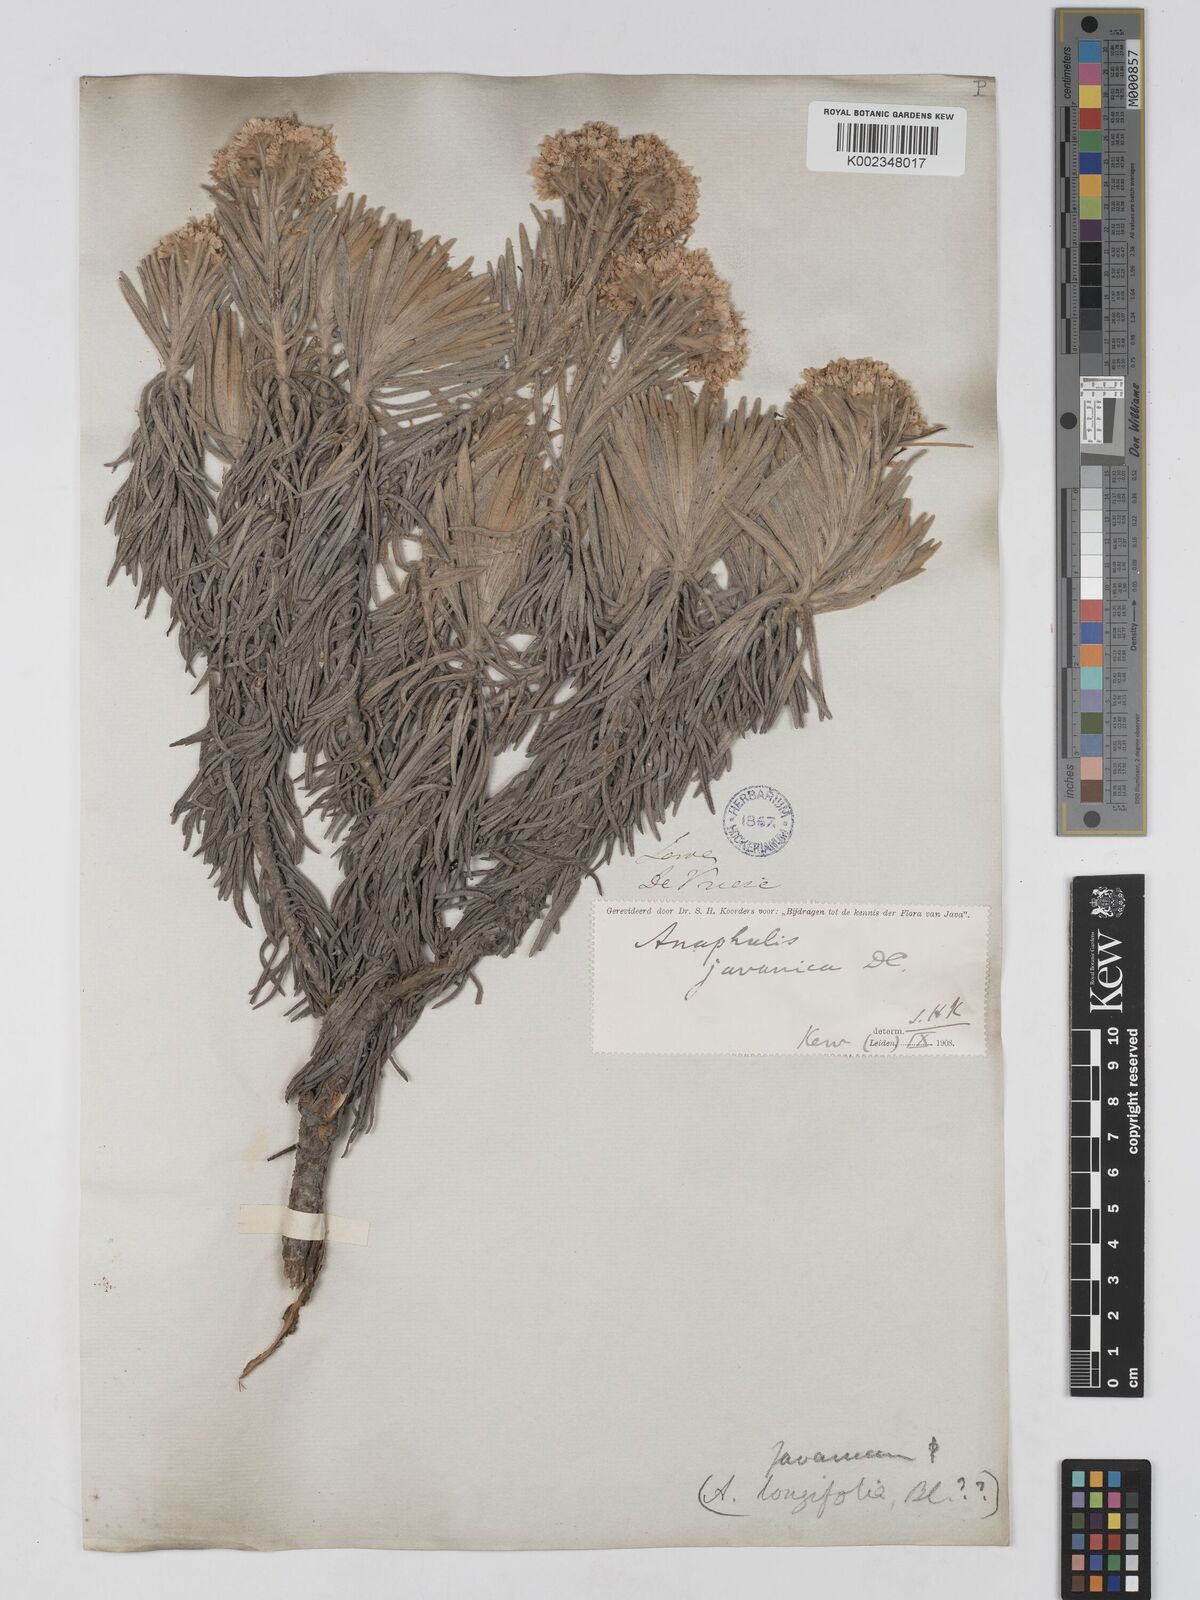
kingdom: Plantae
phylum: Tracheophyta
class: Magnoliopsida
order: Asterales
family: Asteraceae
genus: Anaphalis
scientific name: Anaphalis javanica
